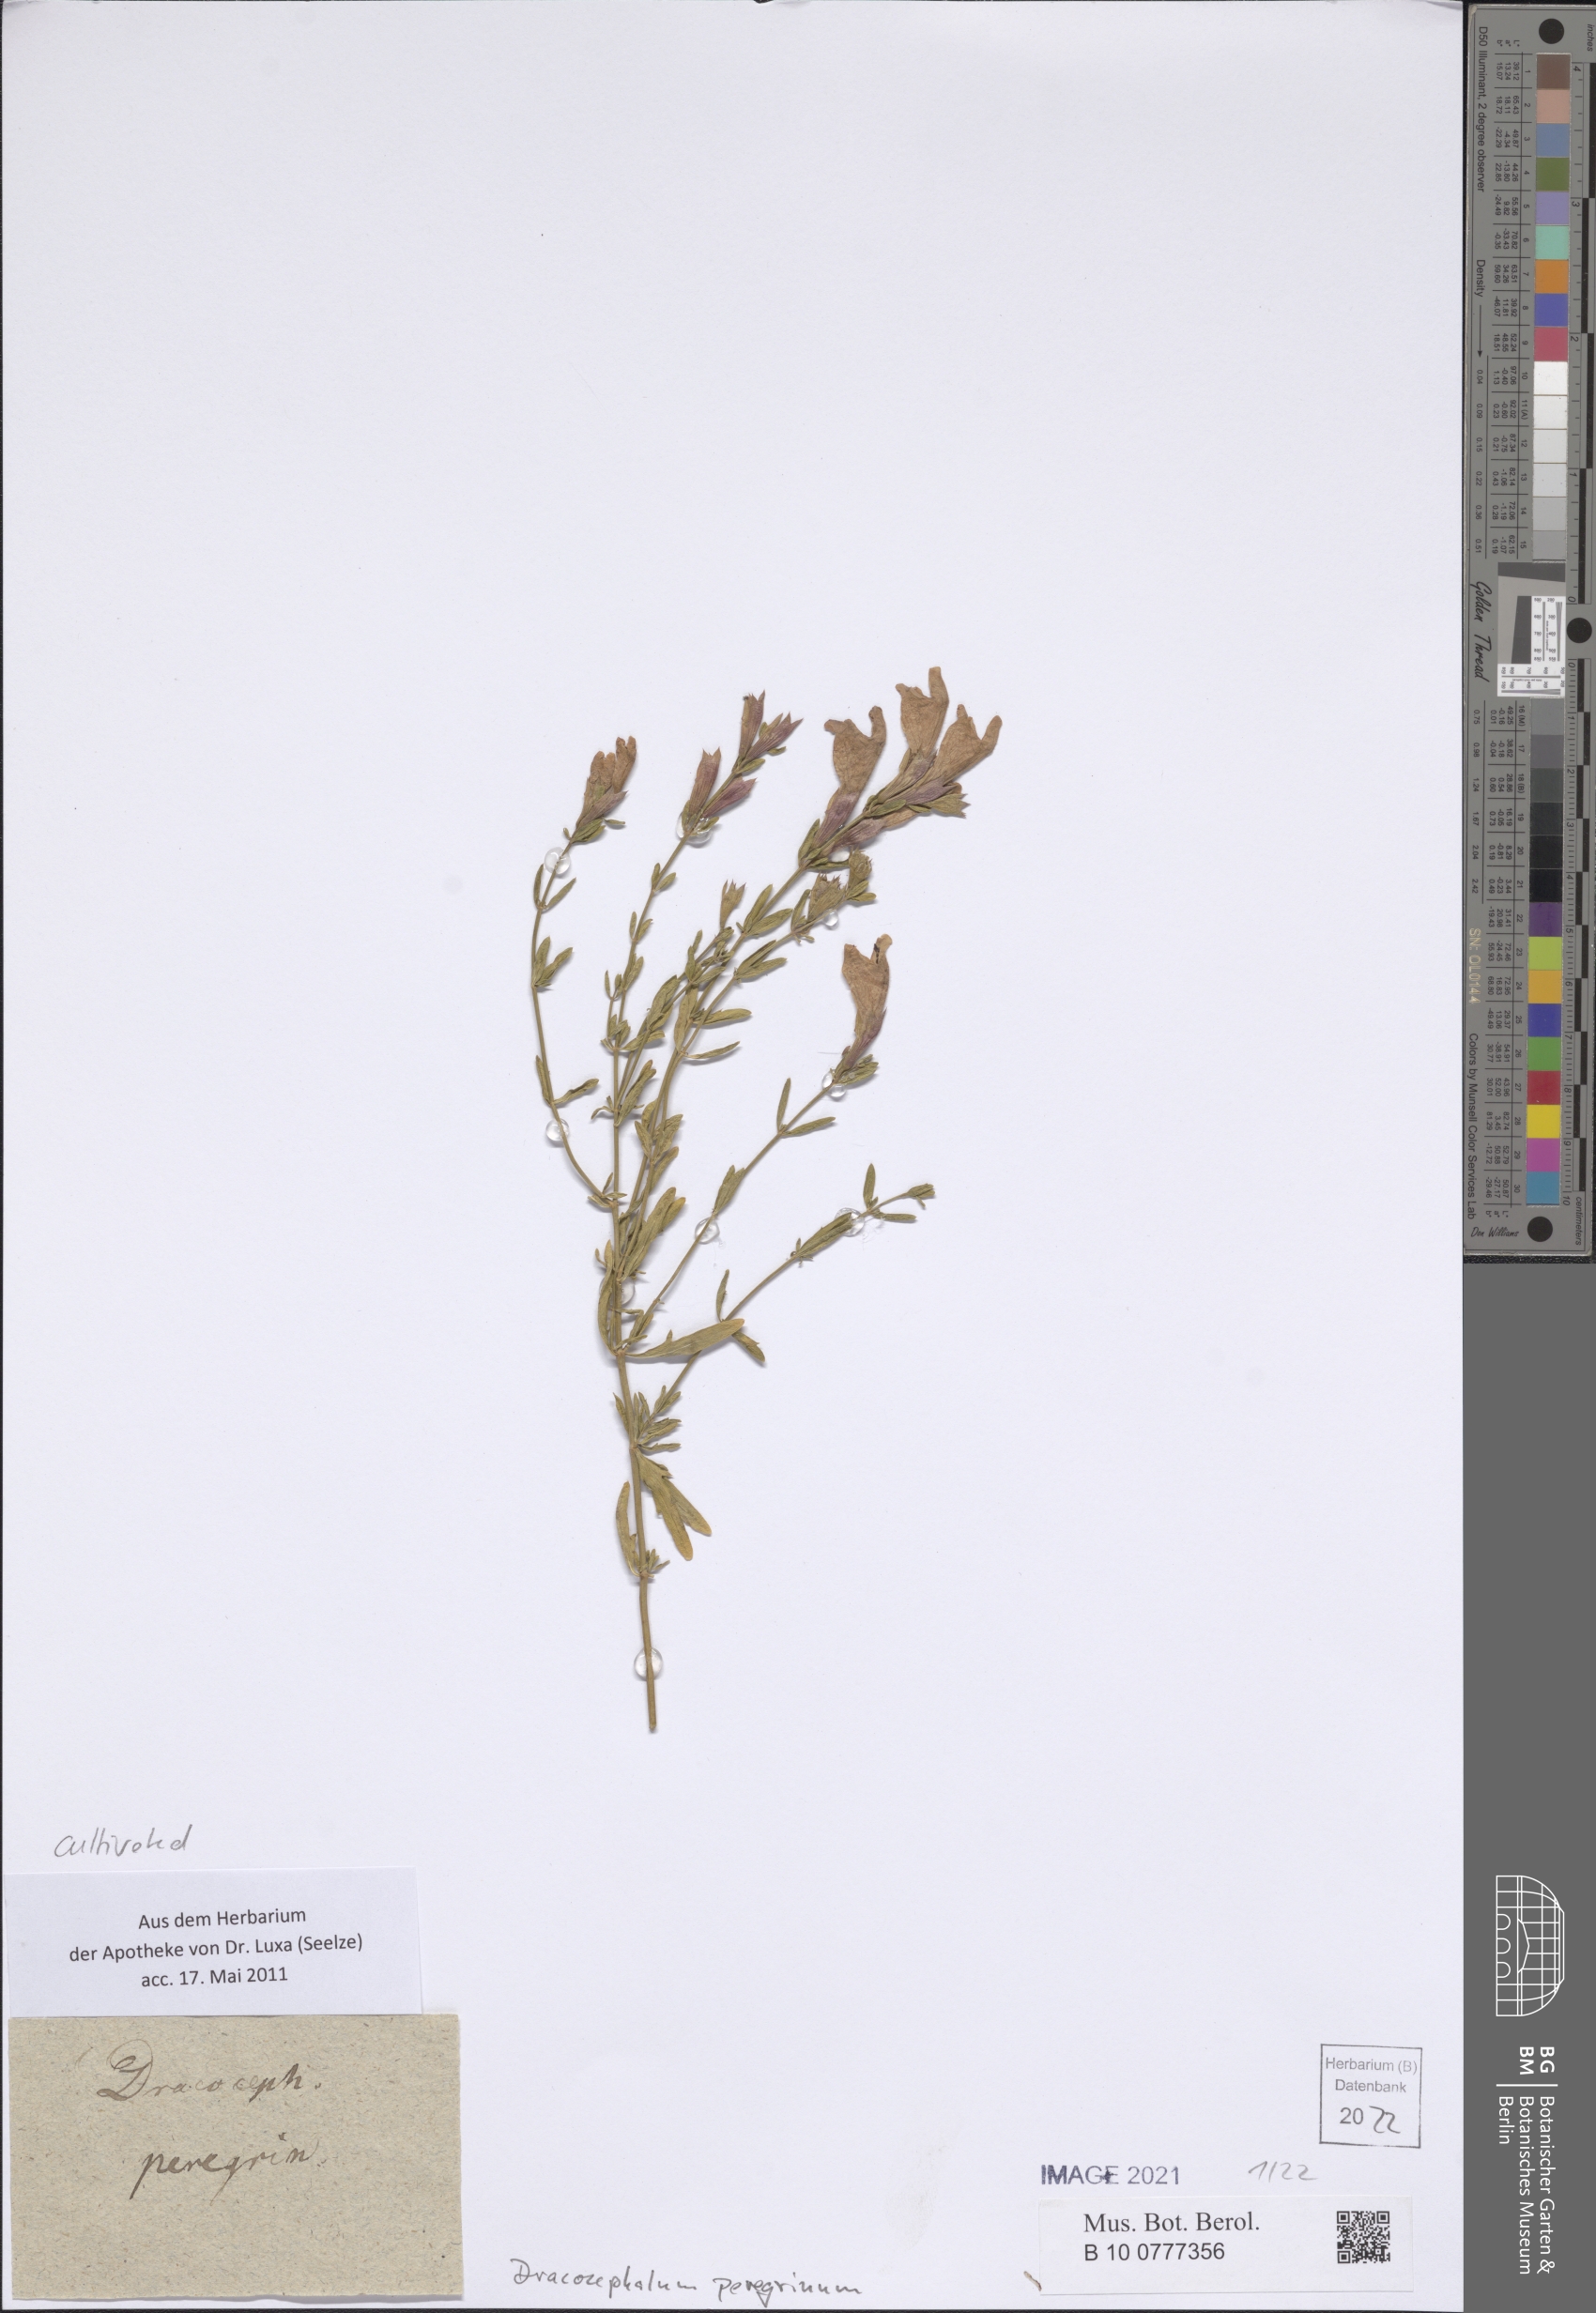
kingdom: Plantae
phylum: Tracheophyta
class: Magnoliopsida
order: Lamiales
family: Lamiaceae
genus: Dracocephalum
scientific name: Dracocephalum peregrinum
